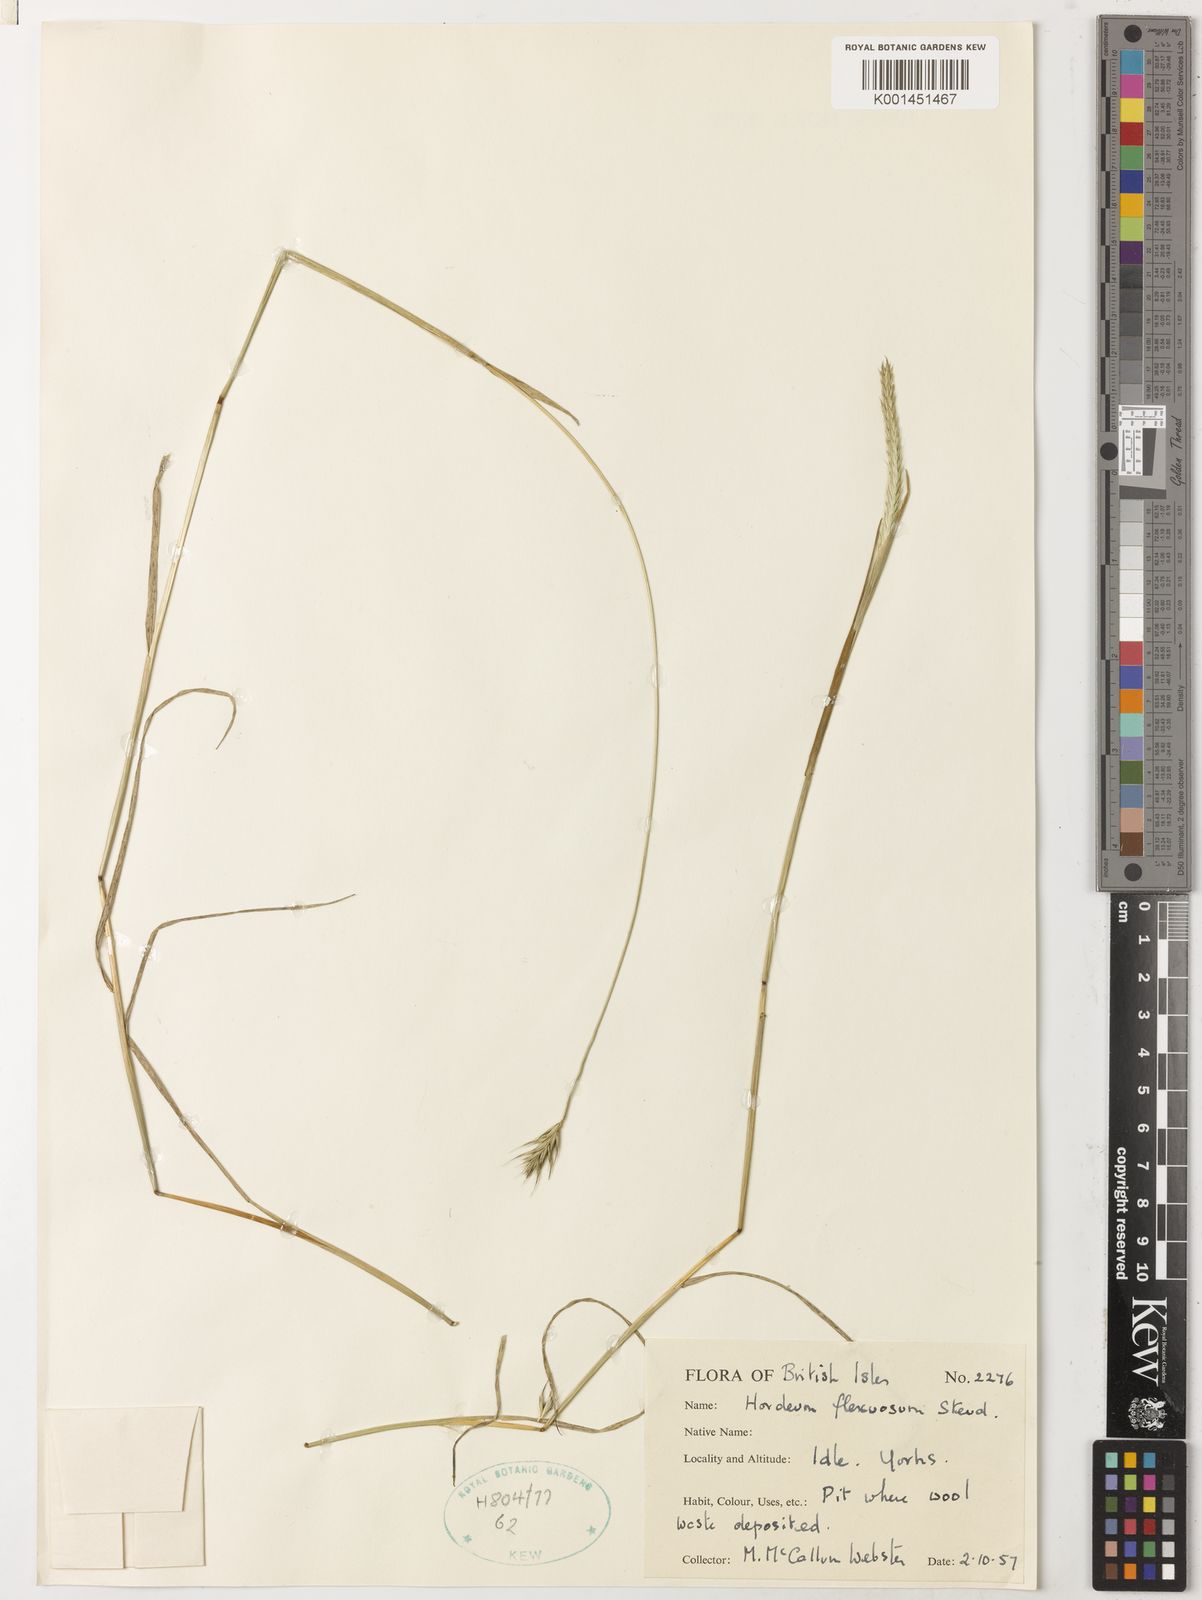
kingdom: Plantae
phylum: Tracheophyta
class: Liliopsida
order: Poales
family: Poaceae
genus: Hordeum
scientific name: Hordeum flexuosum
